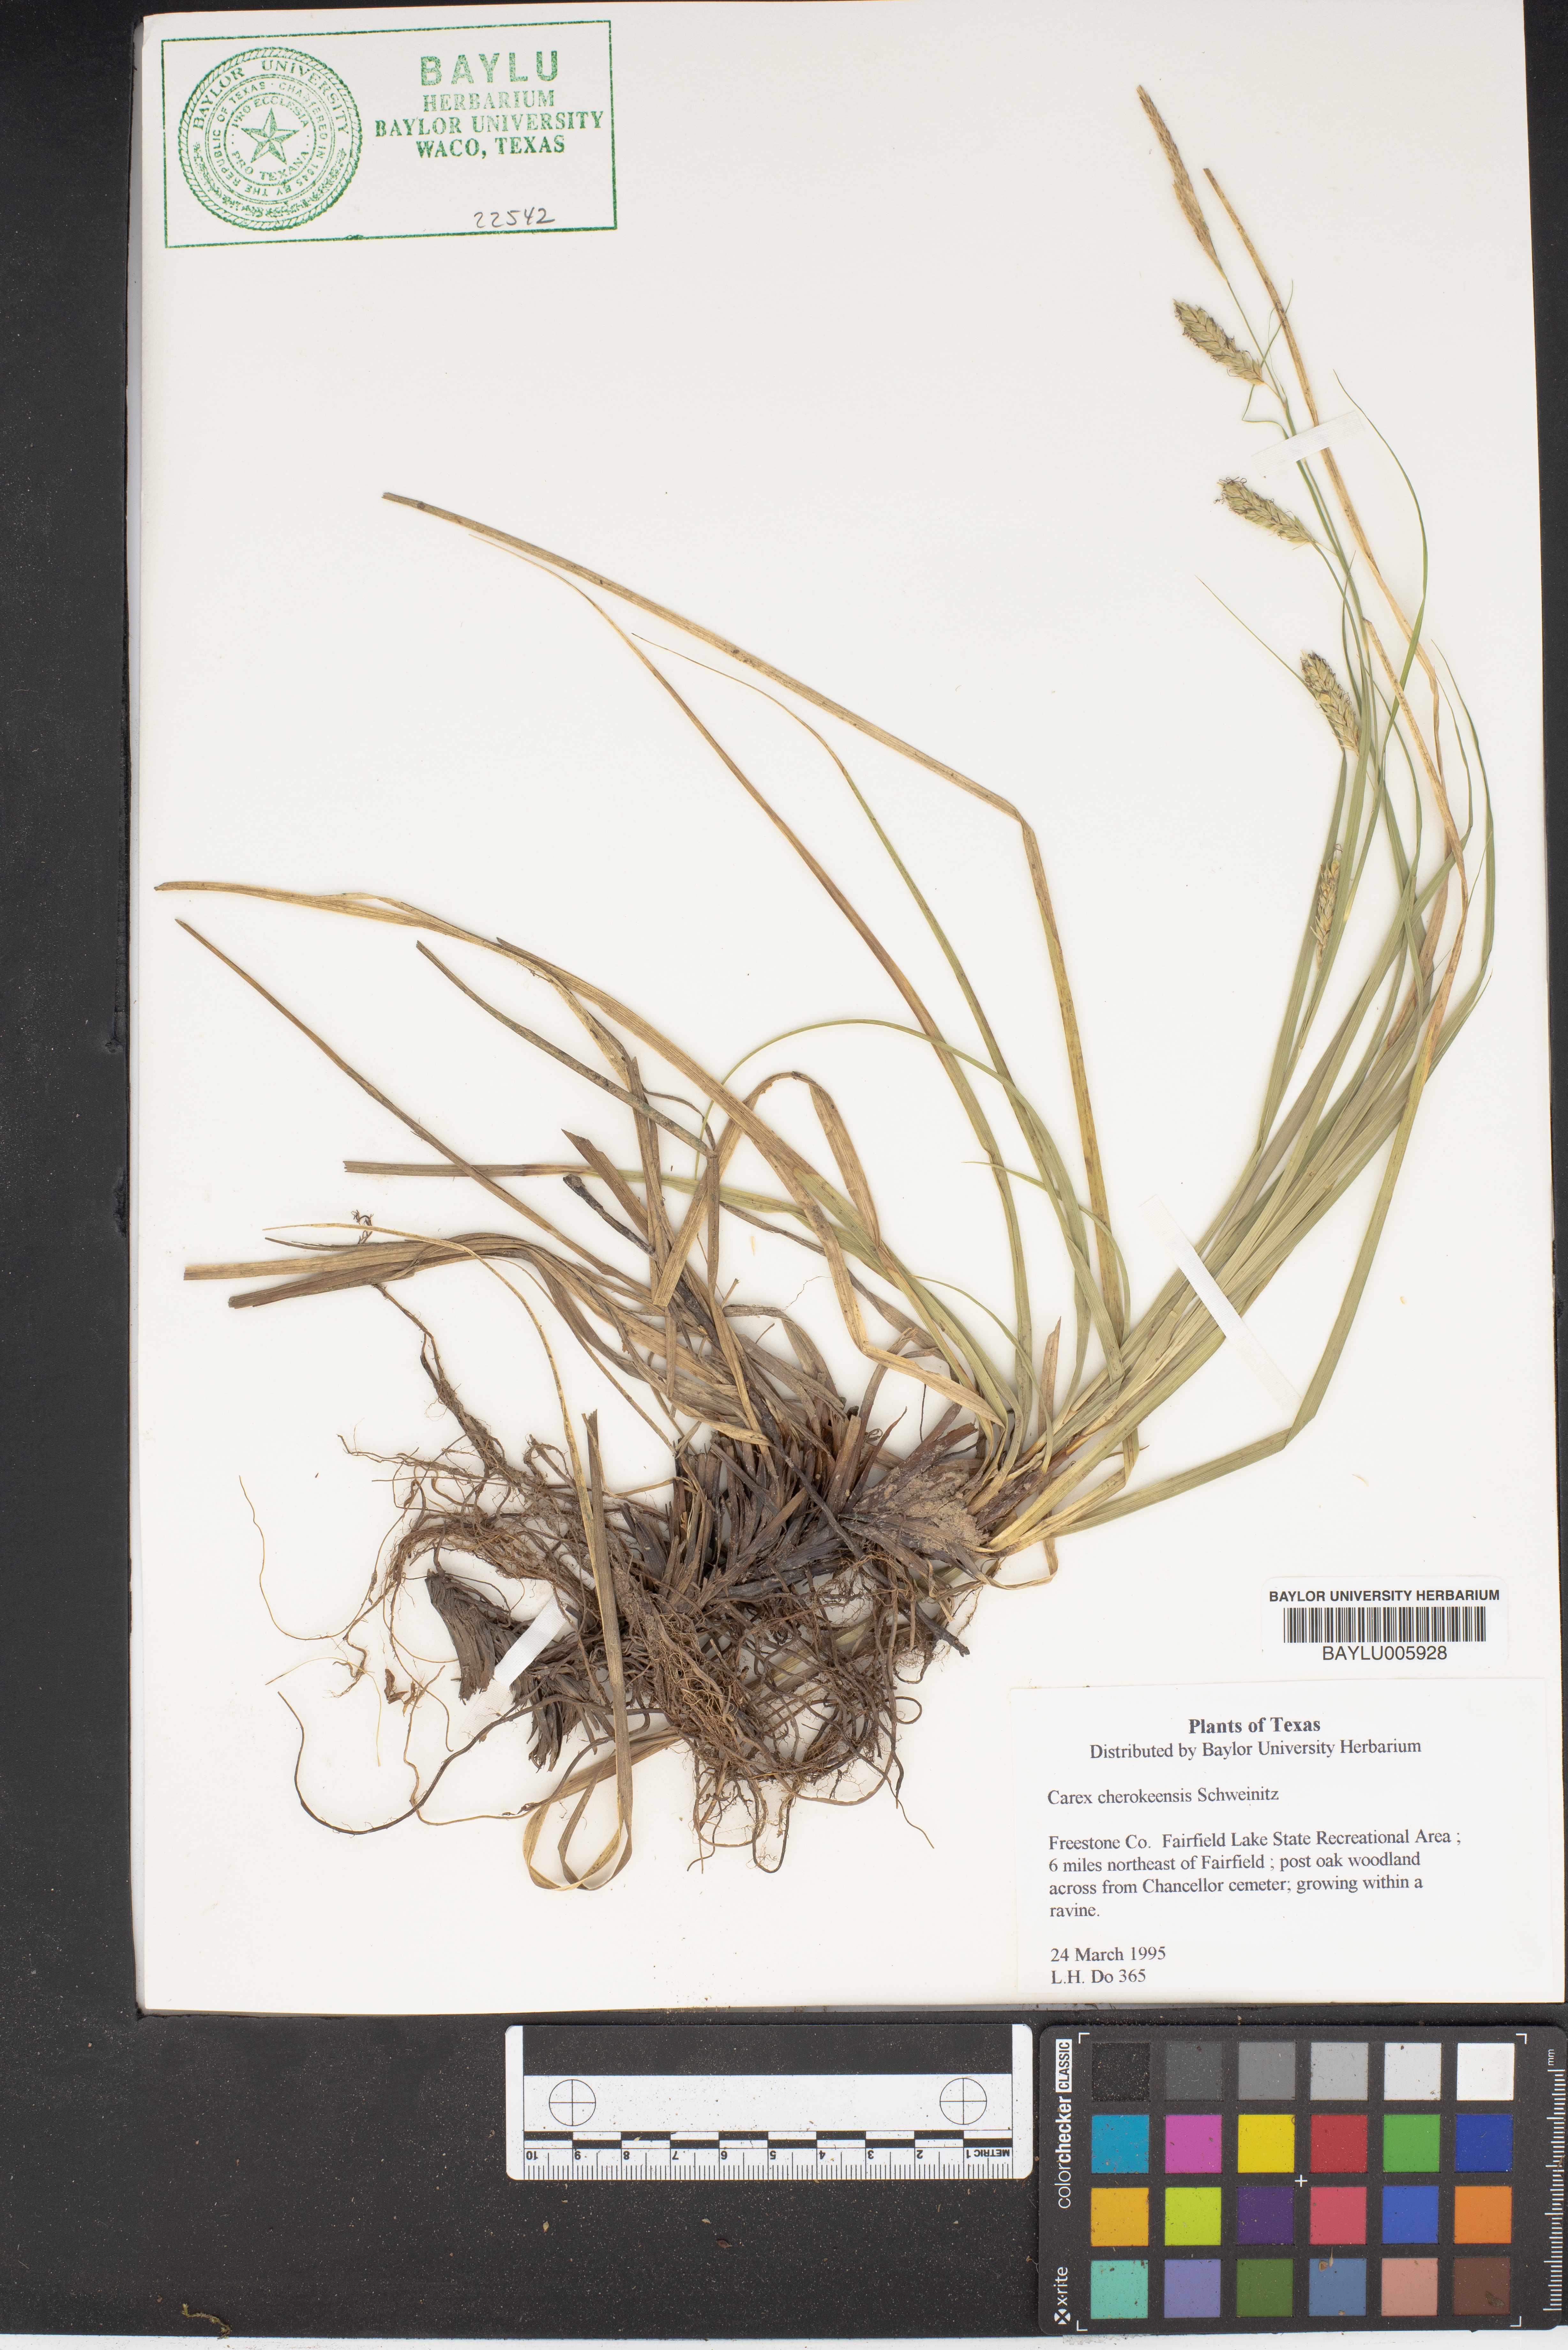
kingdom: Plantae
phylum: Tracheophyta
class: Liliopsida
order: Poales
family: Cyperaceae
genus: Carex
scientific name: Carex cherokeensis
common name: Cherokee sedge
